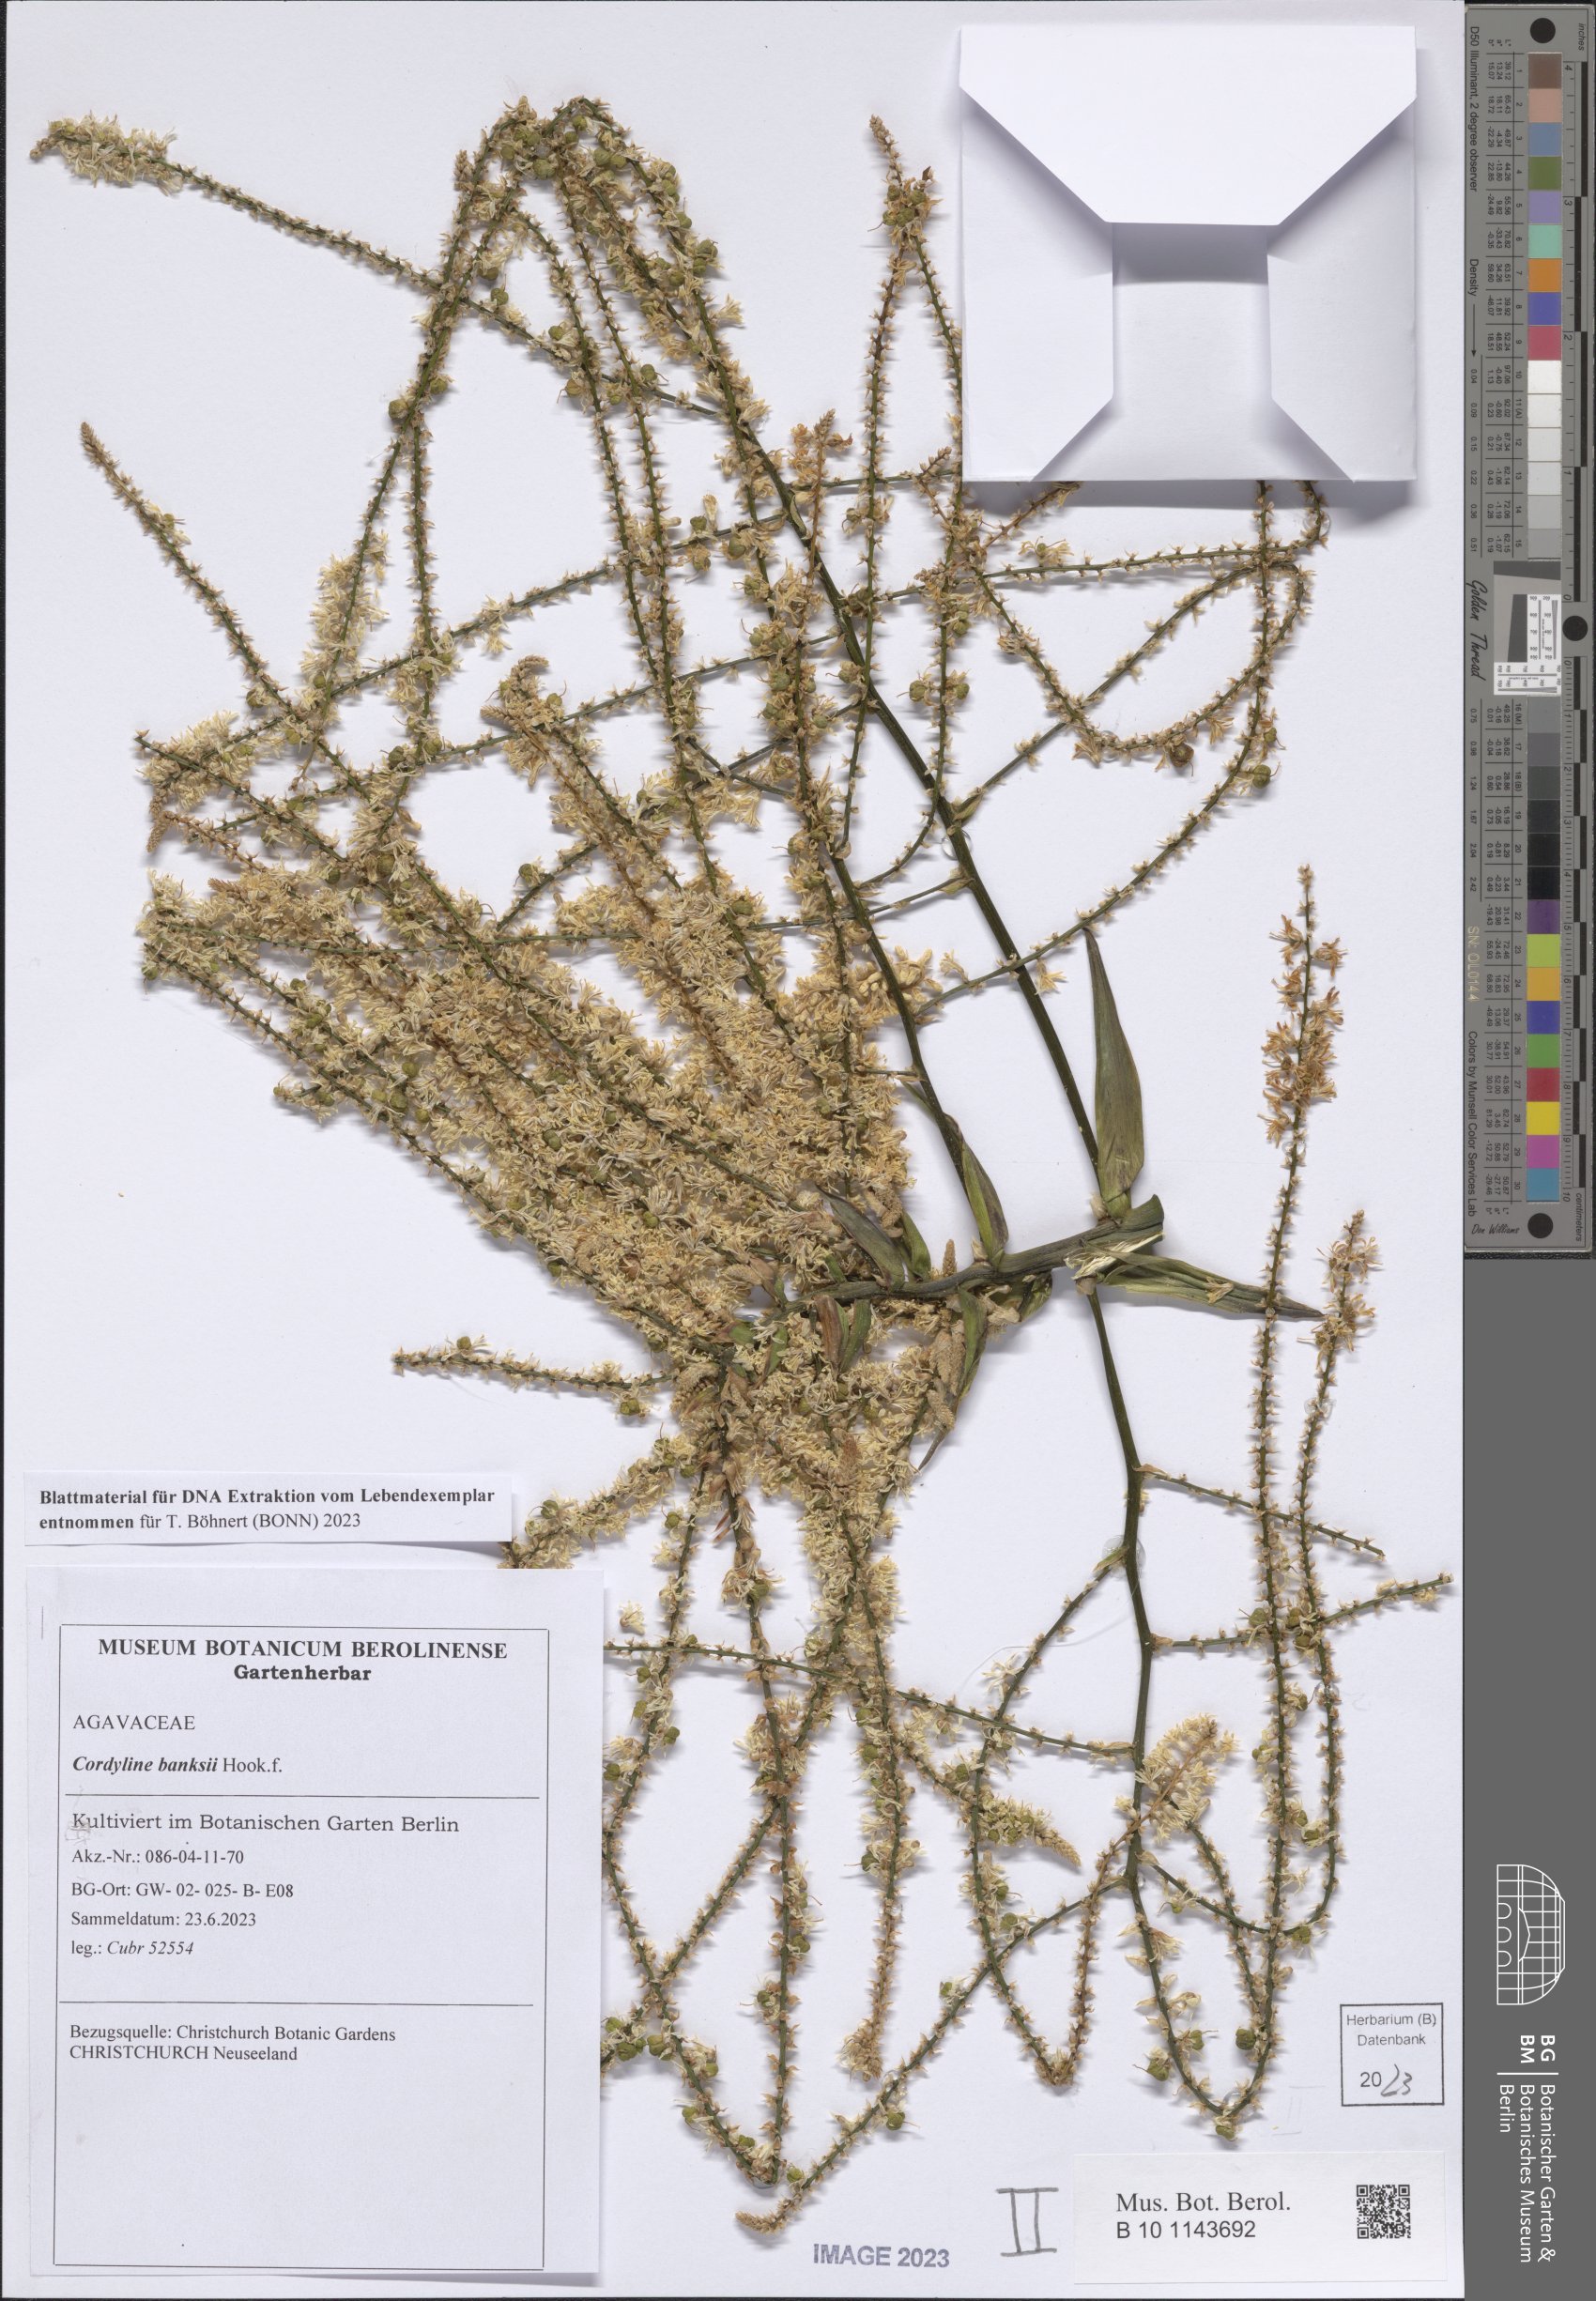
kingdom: Plantae
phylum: Tracheophyta
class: Liliopsida
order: Asparagales
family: Asparagaceae
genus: Cordyline
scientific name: Cordyline banksii
